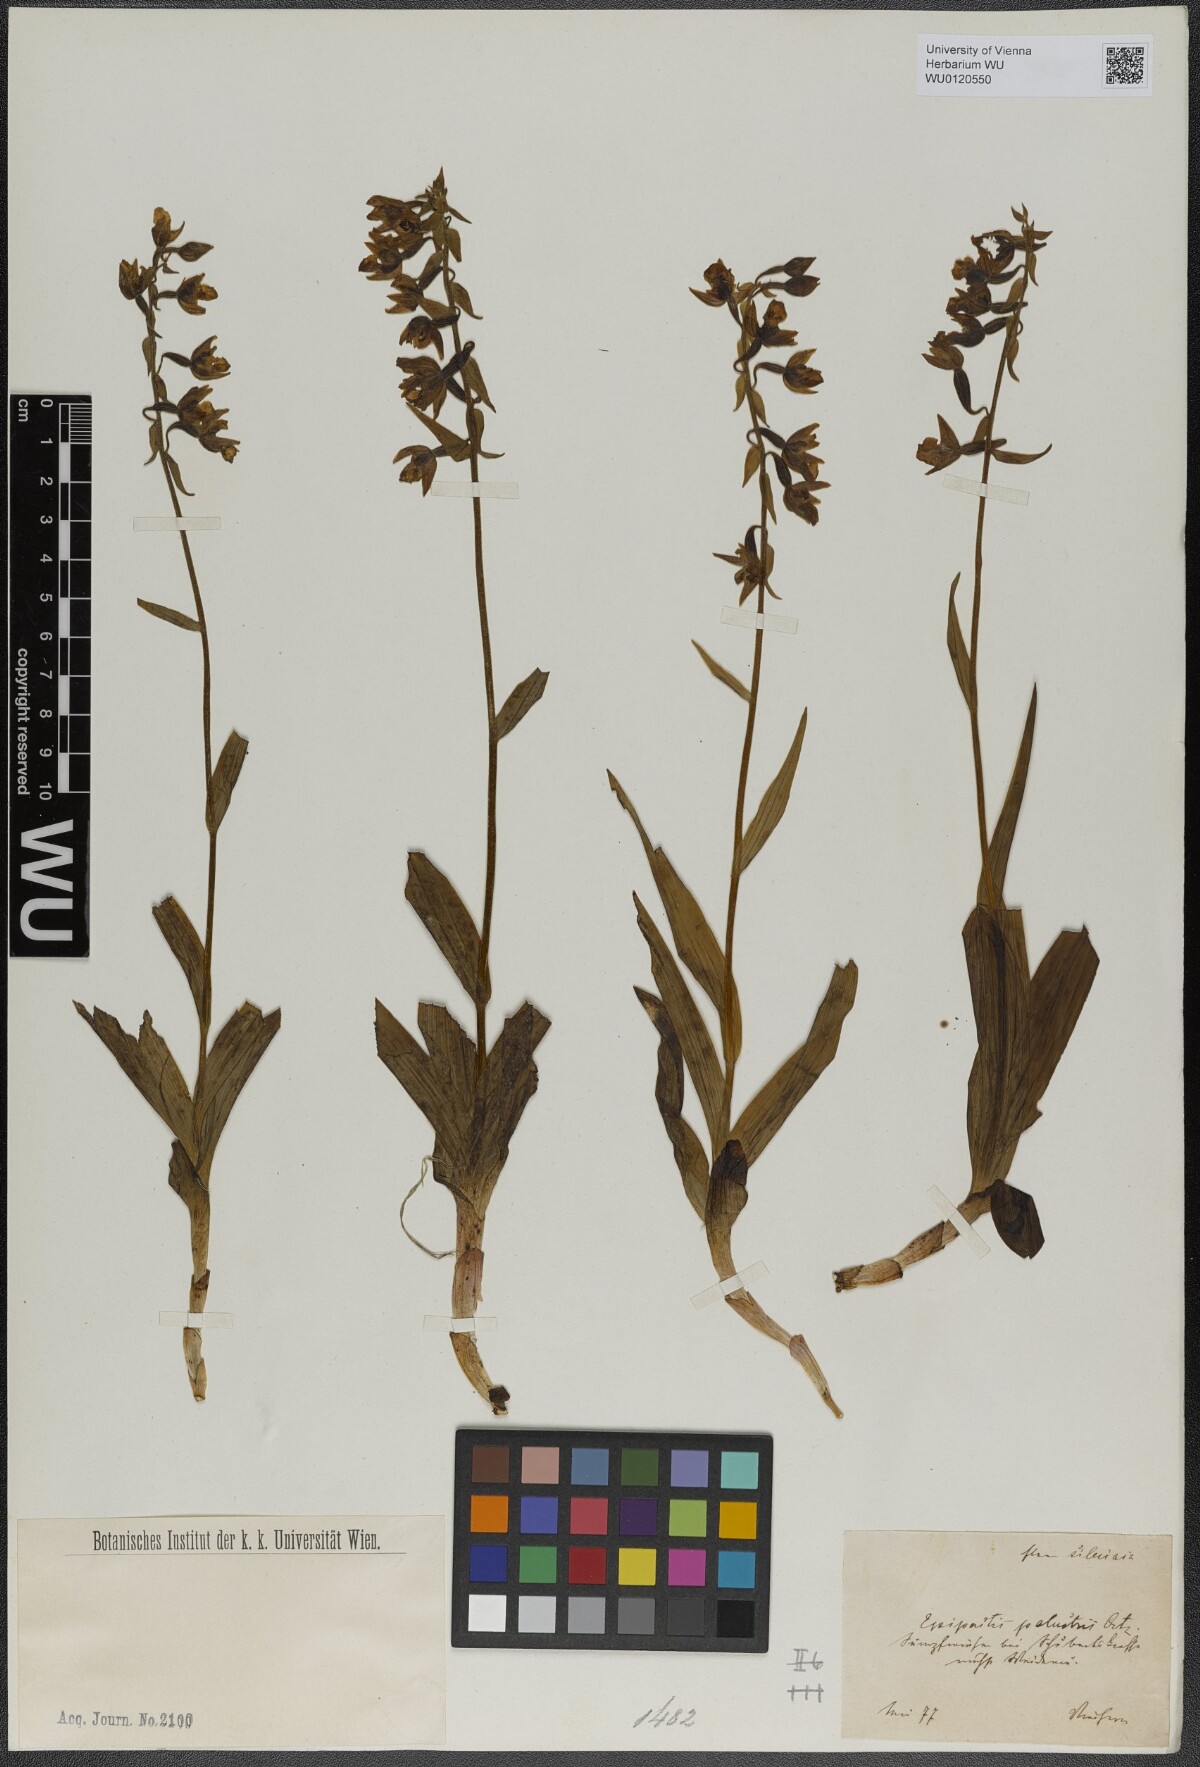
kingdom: Plantae
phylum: Tracheophyta
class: Liliopsida
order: Asparagales
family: Orchidaceae
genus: Epipactis
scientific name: Epipactis palustris
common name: Marsh helleborine
